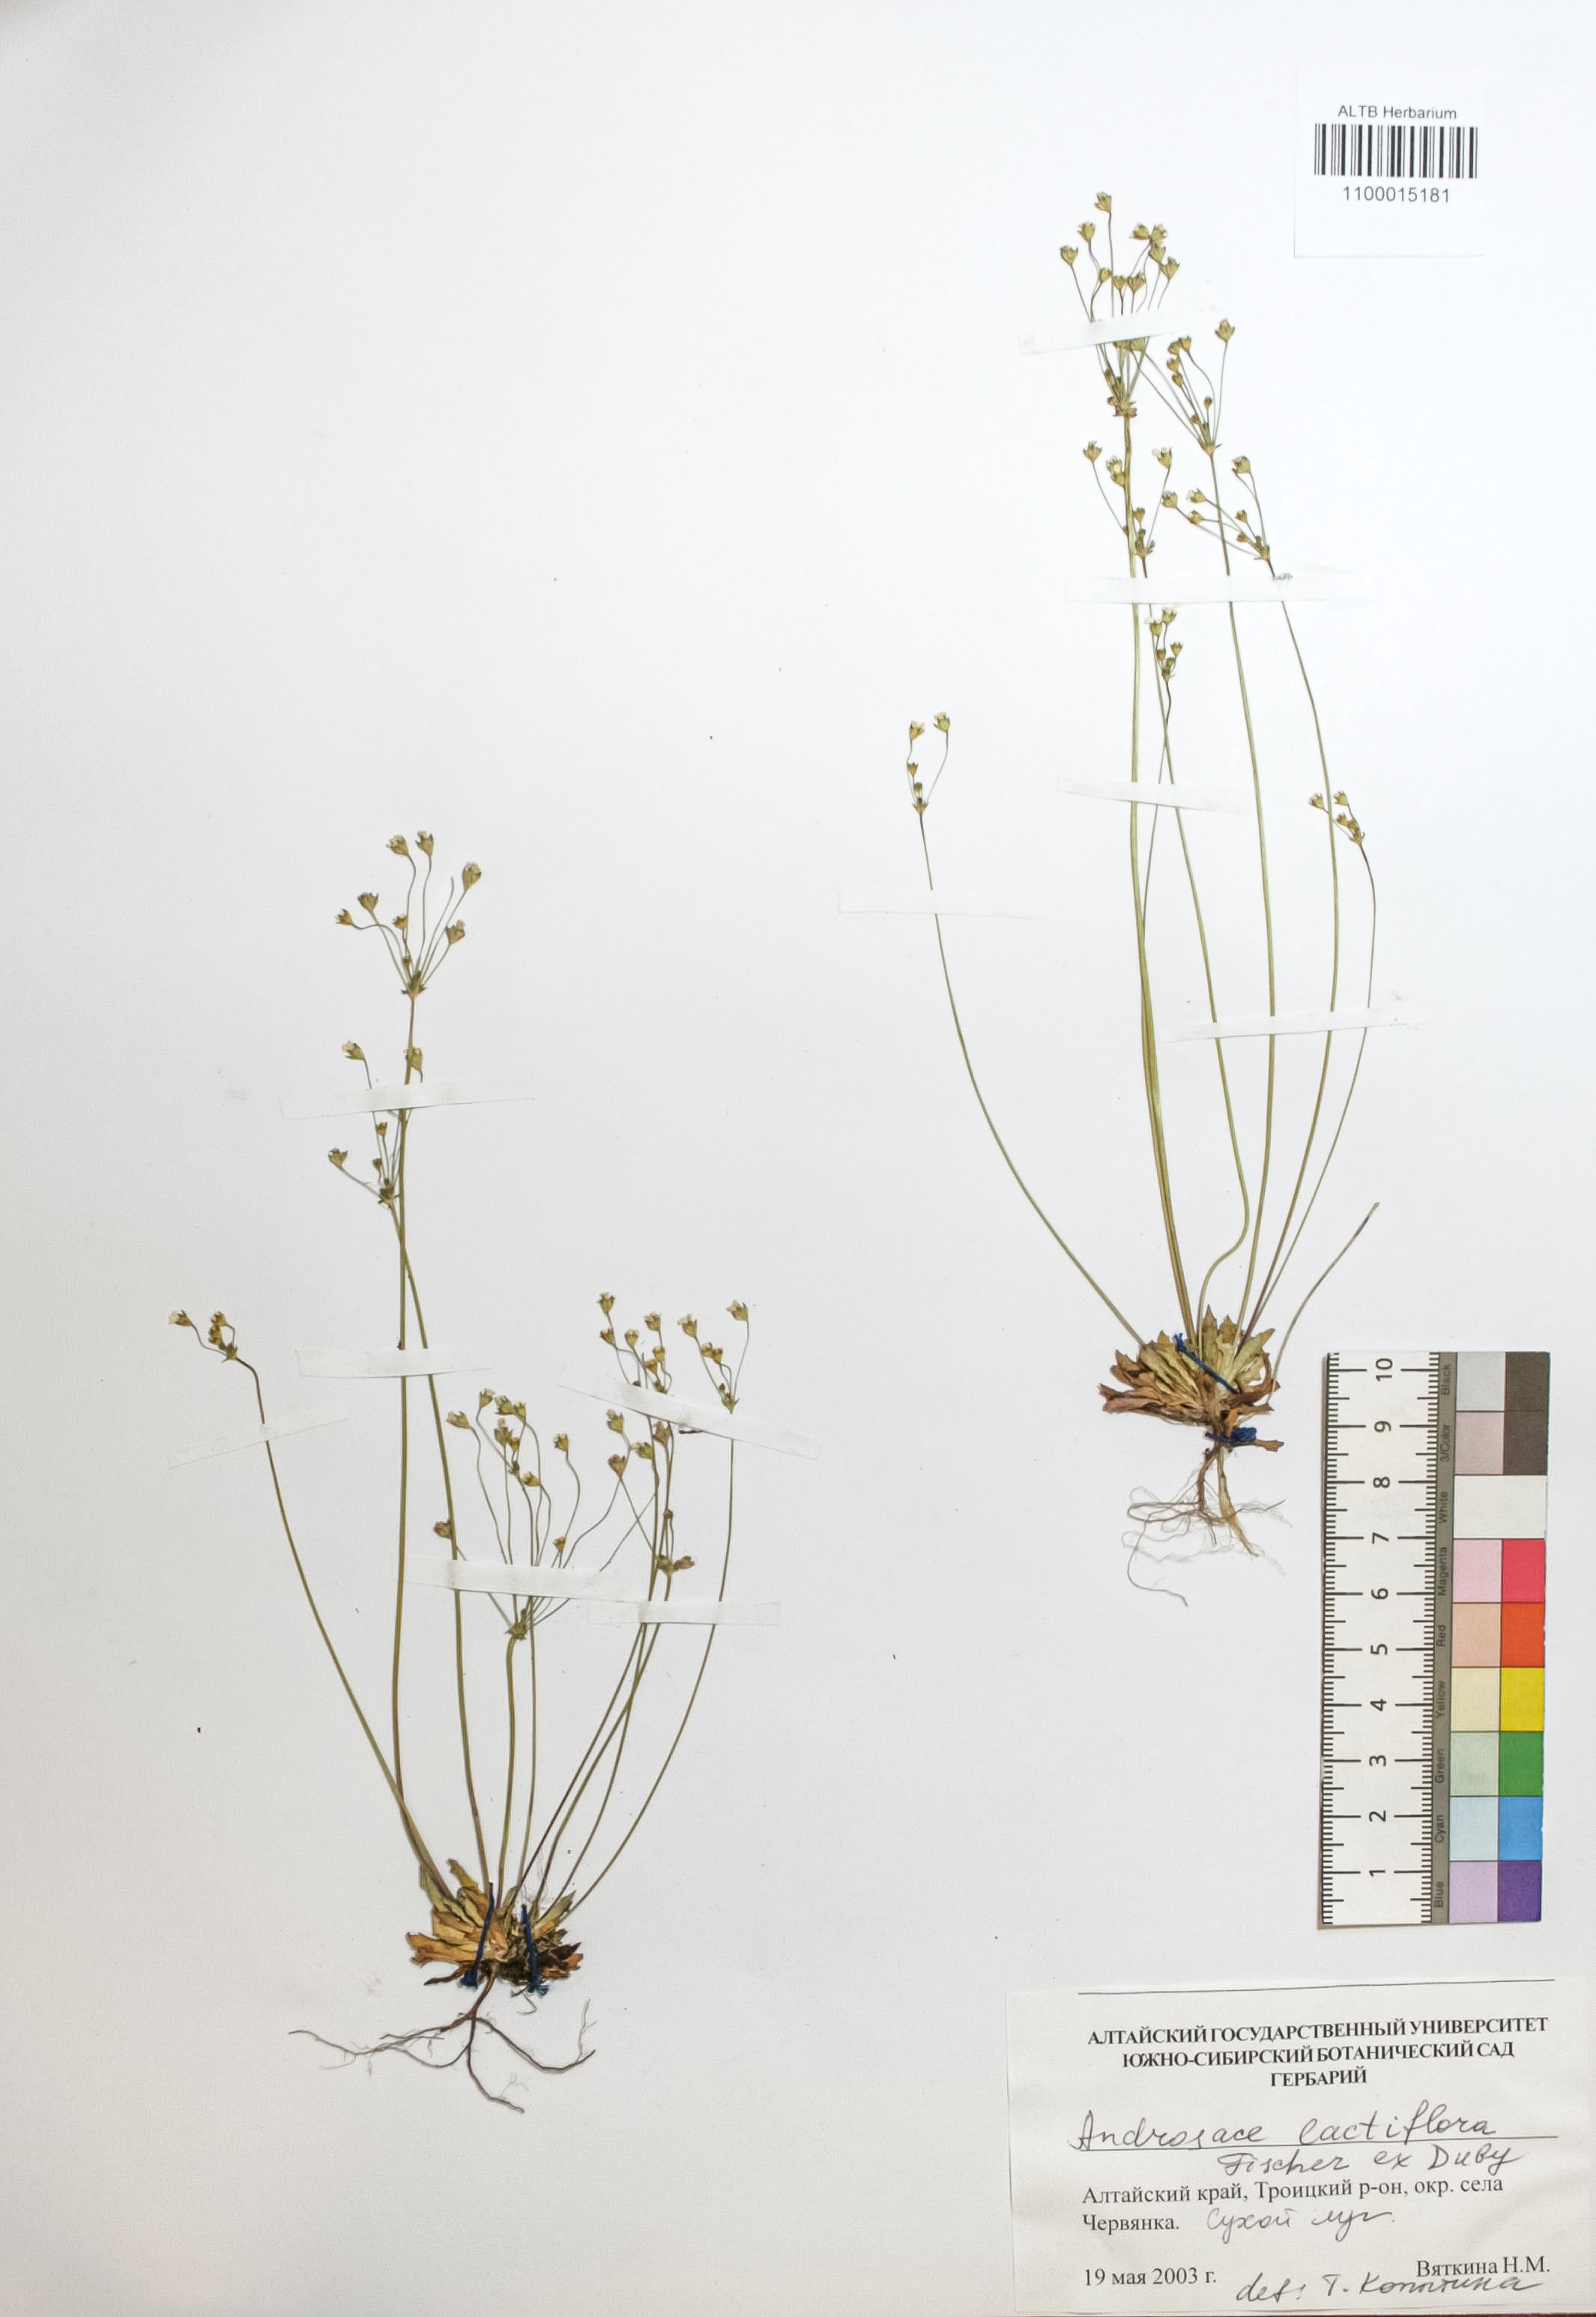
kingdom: Plantae
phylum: Tracheophyta
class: Magnoliopsida
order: Ericales
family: Primulaceae
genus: Androsace
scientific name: Androsace lactiflora
